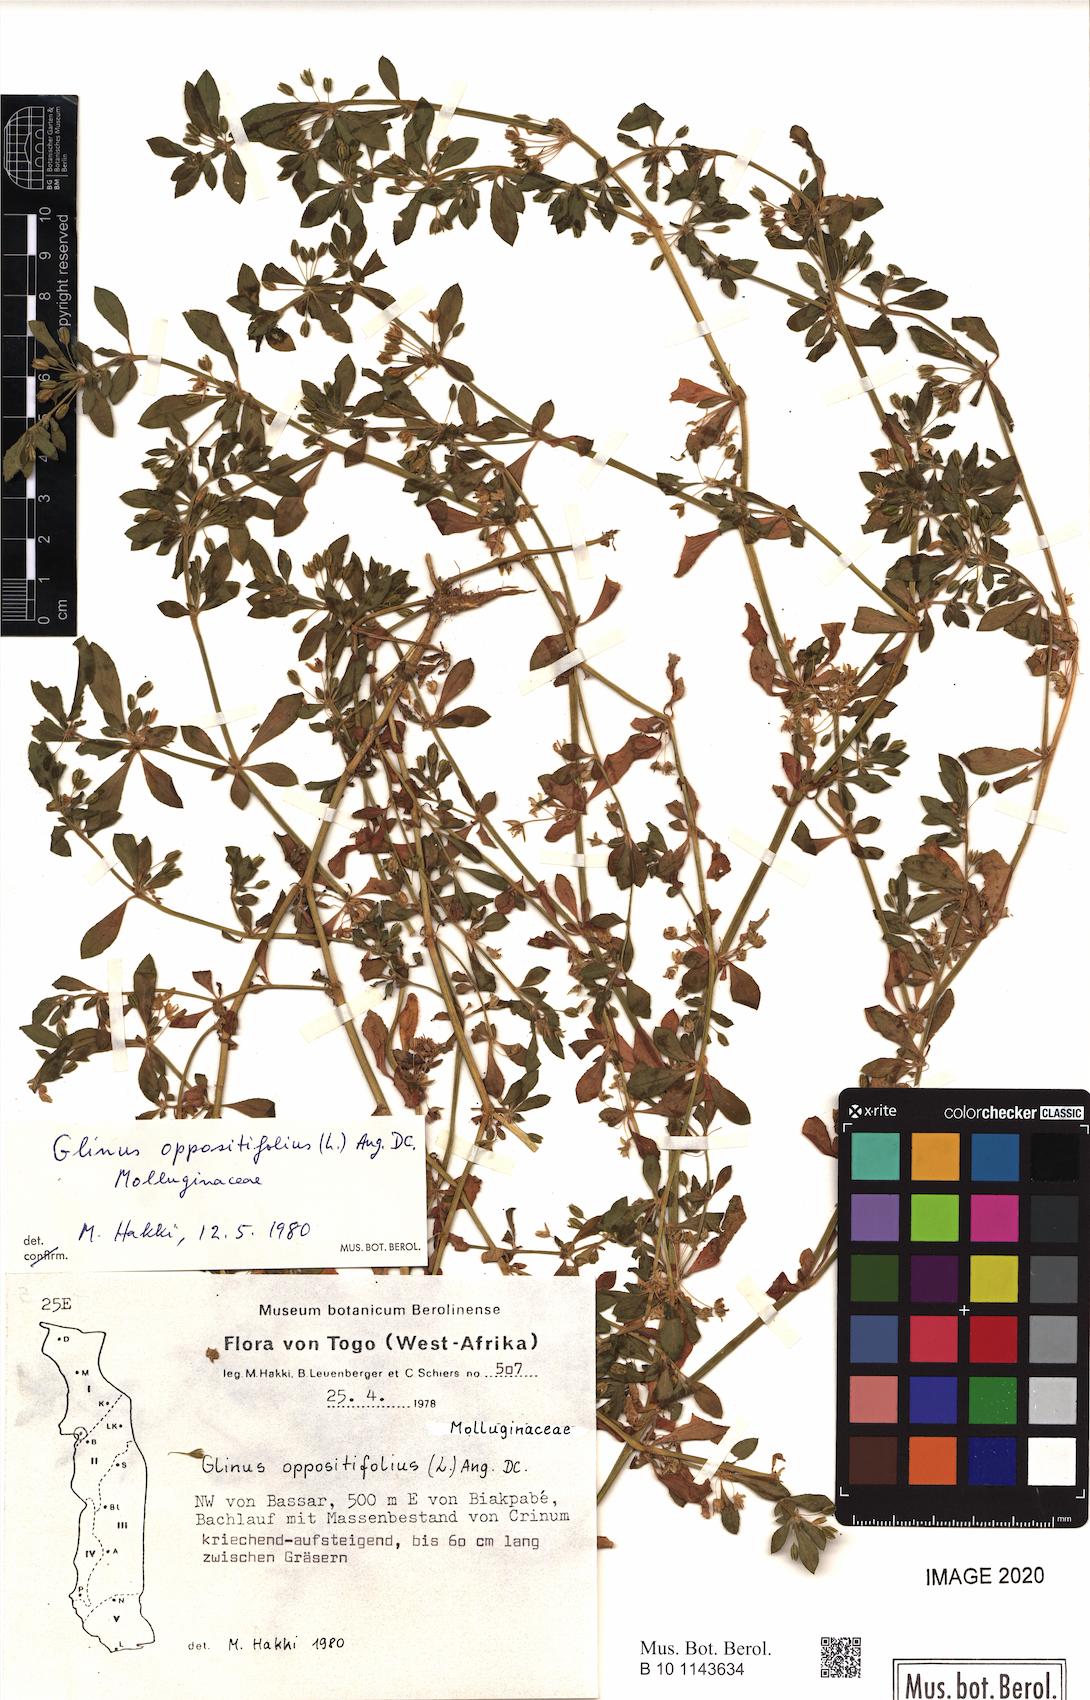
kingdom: Plantae
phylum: Tracheophyta
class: Magnoliopsida
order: Caryophyllales
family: Molluginaceae
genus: Glinus
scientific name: Glinus oppositifolius
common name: Slender carpetweed
